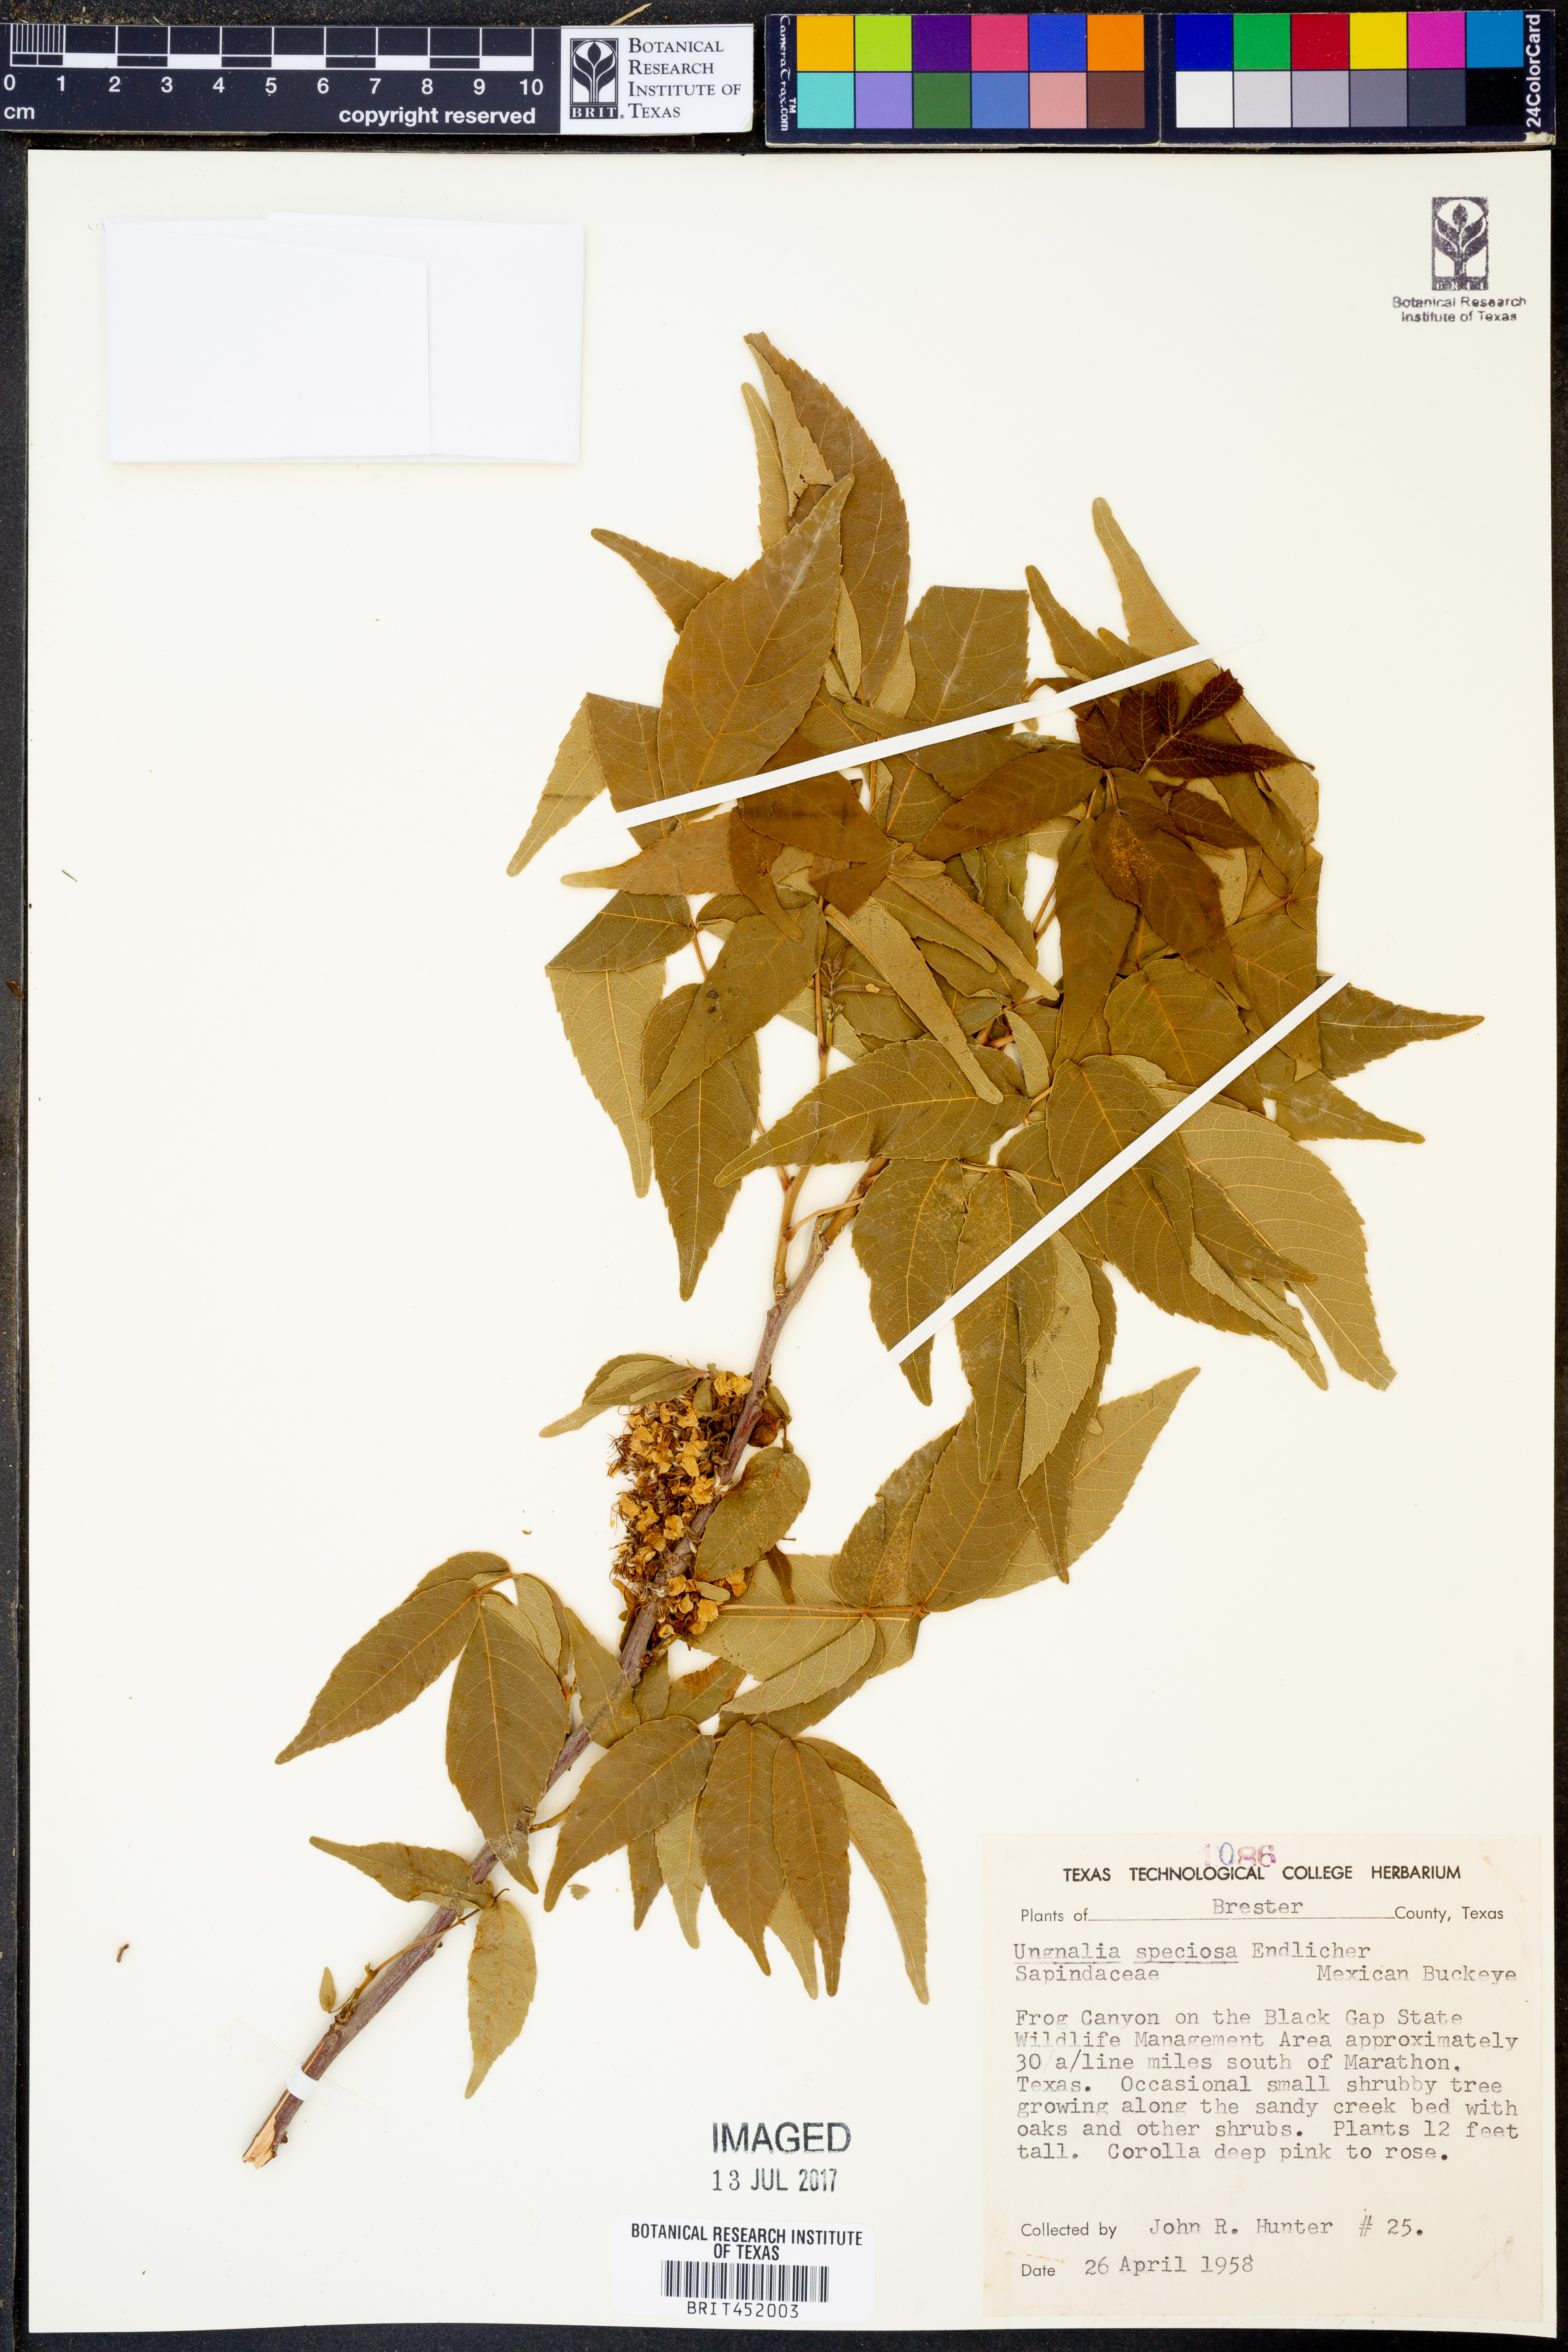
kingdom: Plantae
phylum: Tracheophyta
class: Magnoliopsida
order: Sapindales
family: Sapindaceae
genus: Ungnadia
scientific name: Ungnadia speciosa
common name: Texas-buckeye
